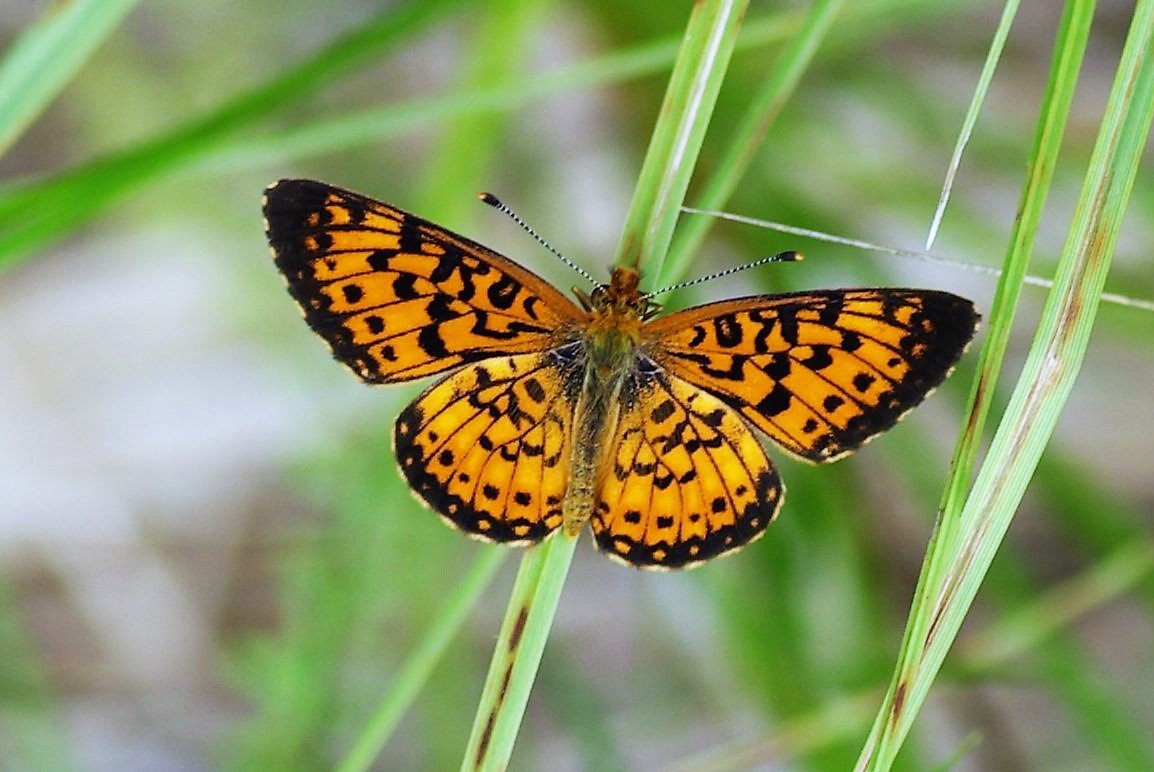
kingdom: Animalia
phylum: Arthropoda
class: Insecta
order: Lepidoptera
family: Nymphalidae
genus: Boloria
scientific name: Boloria selene
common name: Silver-bordered Fritillary
